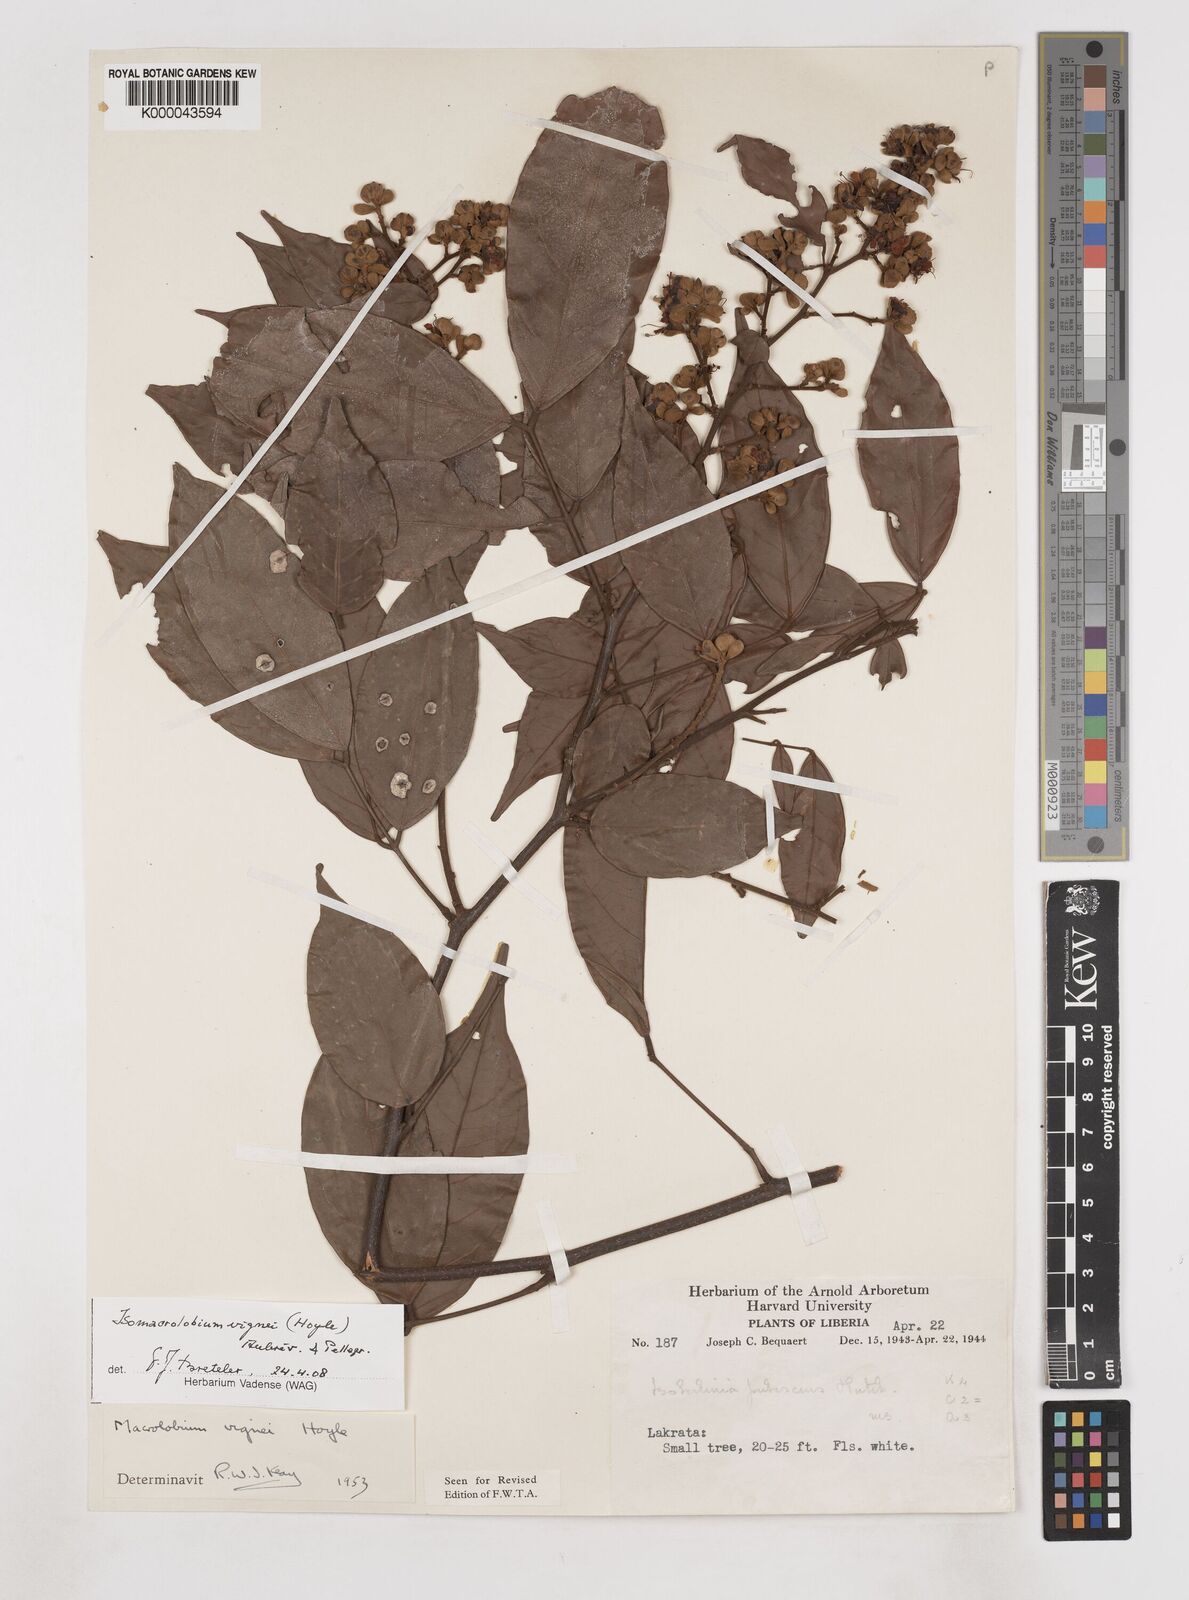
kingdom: Plantae
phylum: Tracheophyta
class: Magnoliopsida
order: Fabales
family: Fabaceae
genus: Englerodendron
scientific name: Englerodendron vignei
